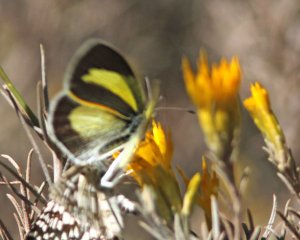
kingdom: Animalia
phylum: Arthropoda
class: Insecta
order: Lepidoptera
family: Pieridae
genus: Eurema
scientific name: Eurema daira
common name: Barred Yellow
